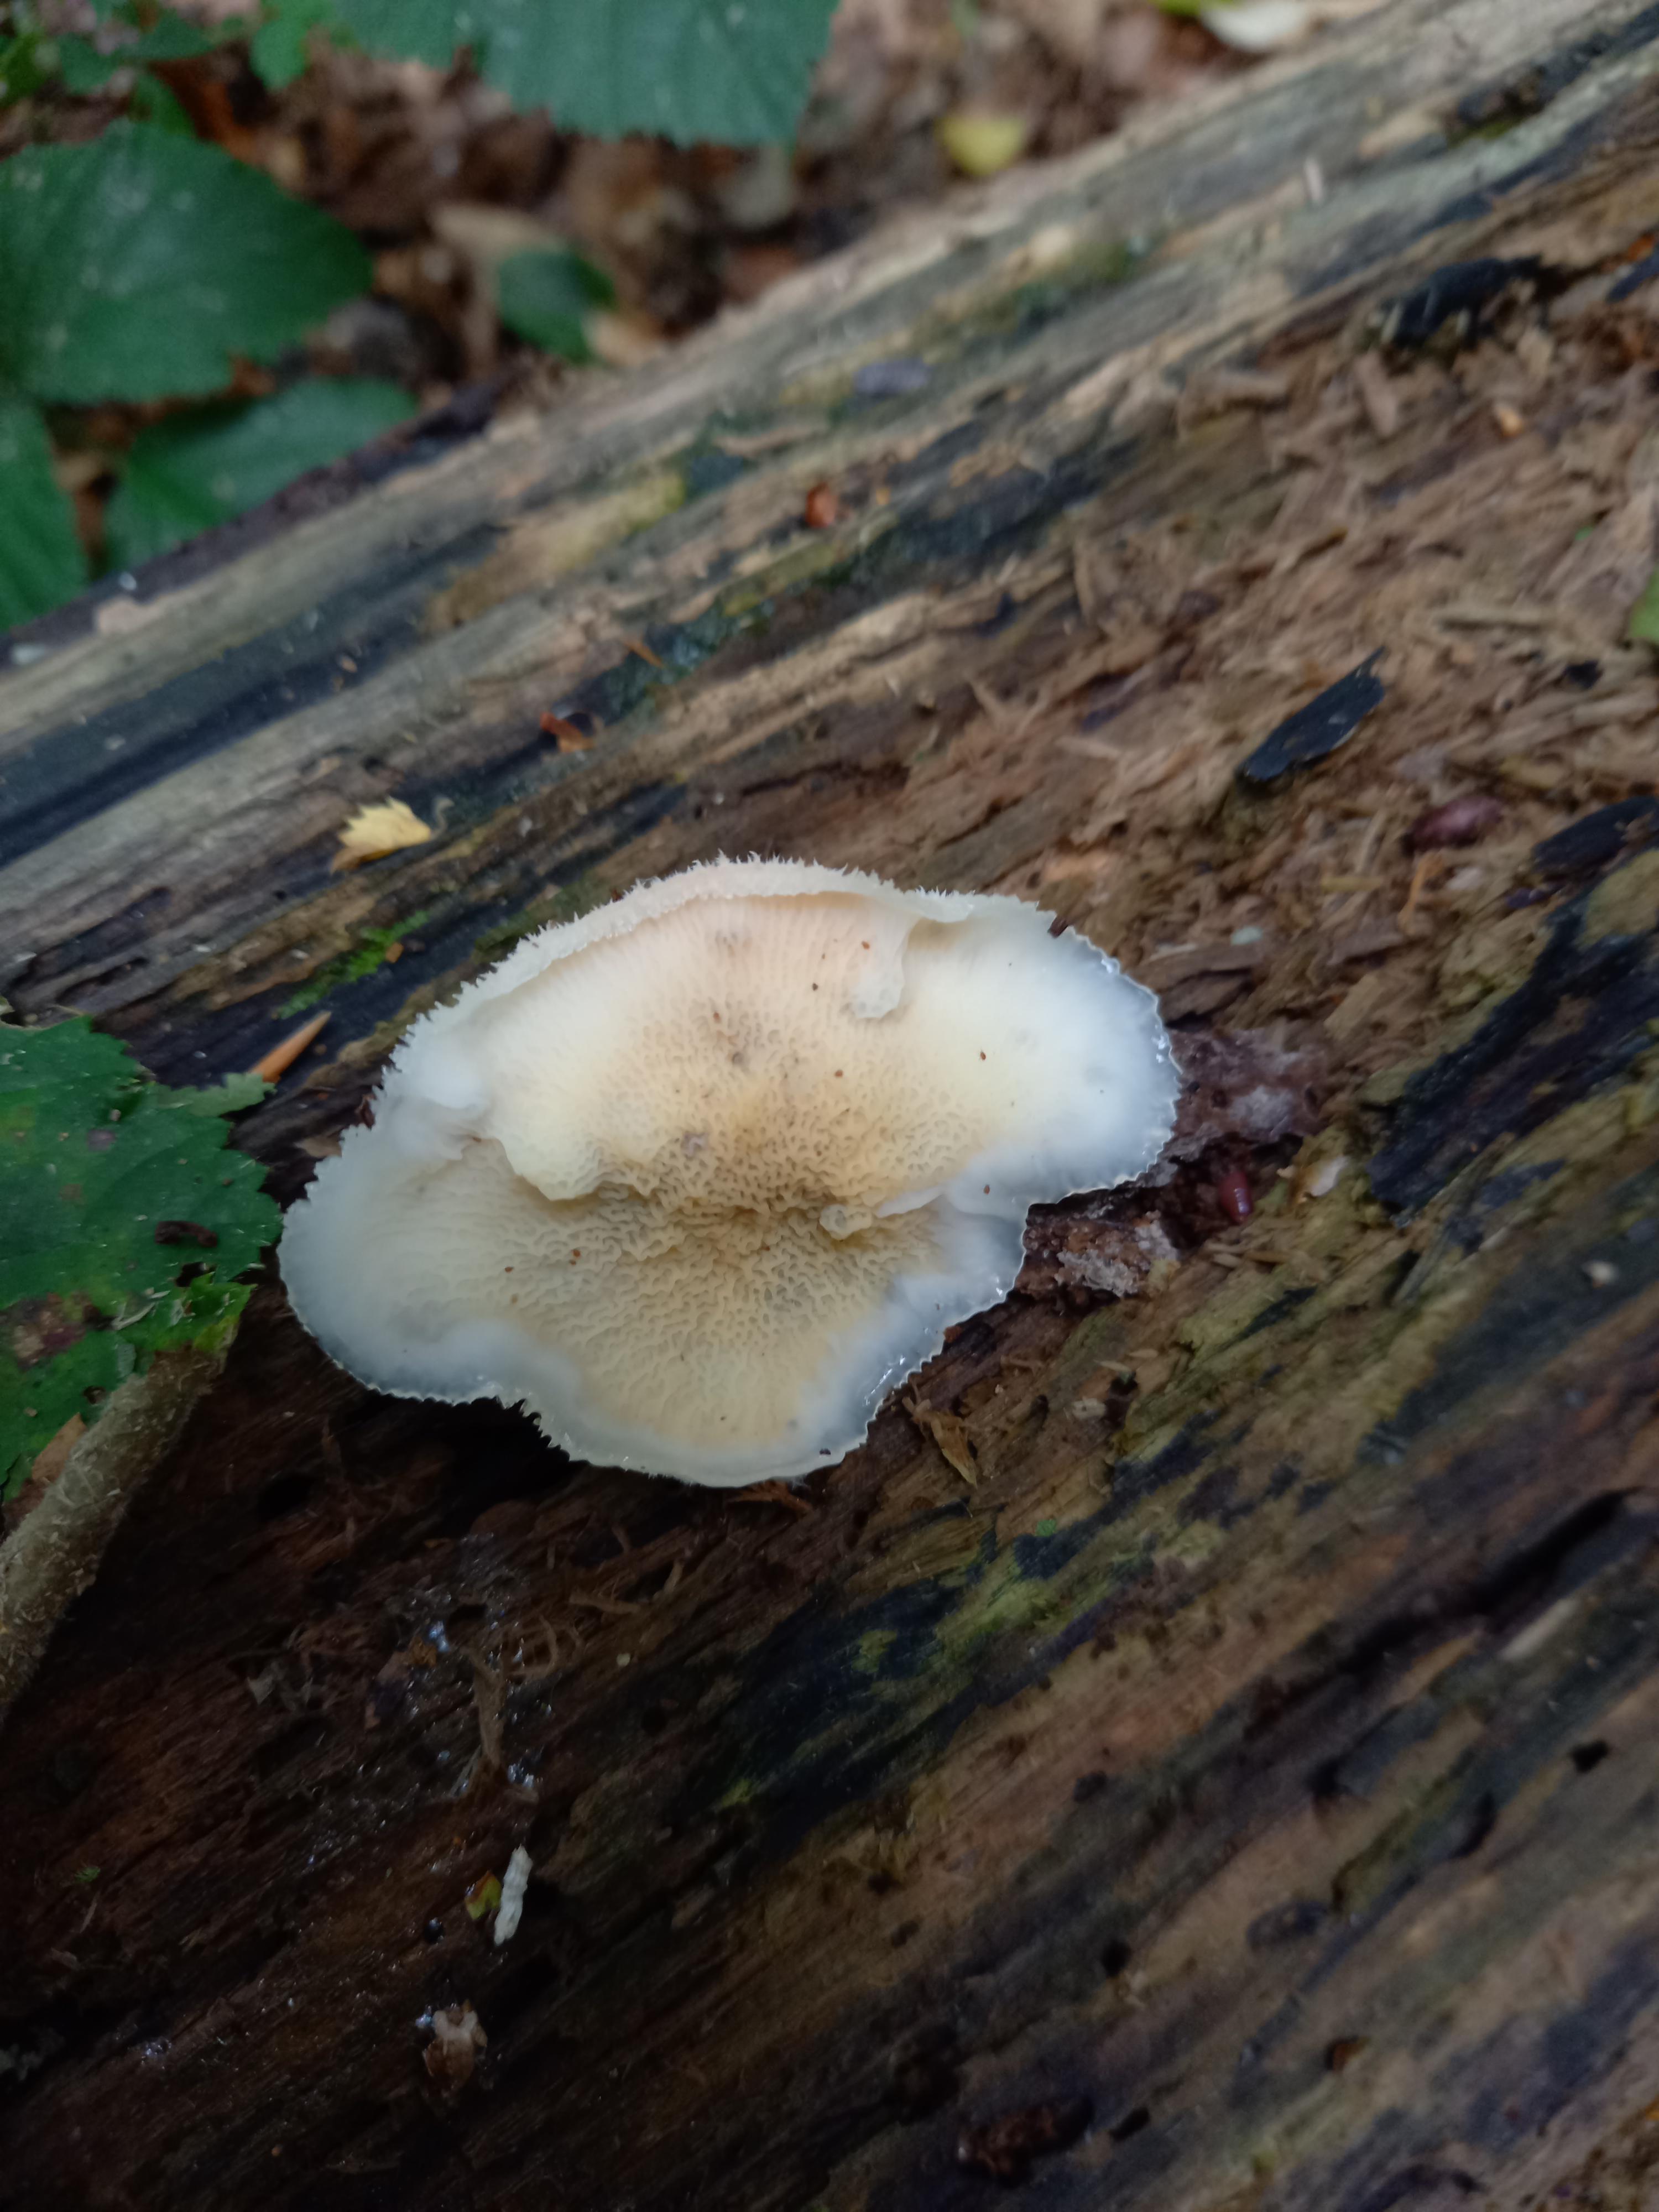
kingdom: Fungi
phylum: Basidiomycota
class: Agaricomycetes
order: Polyporales
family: Meruliaceae
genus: Phlebia
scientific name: Phlebia tremellosa
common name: bævrende åresvamp
